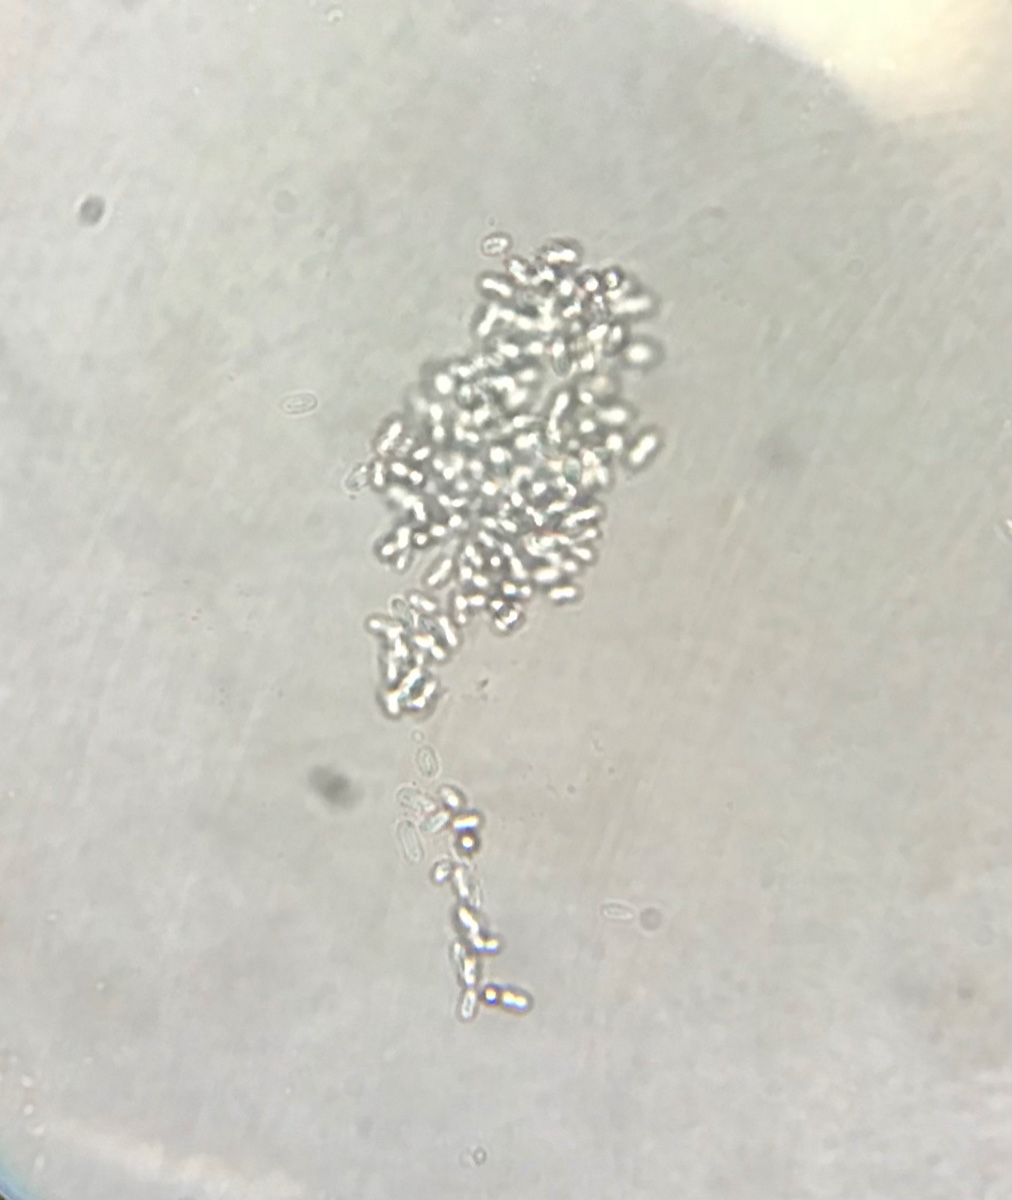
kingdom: Fungi
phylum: Ascomycota
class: Dothideomycetes
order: Pleosporales
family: Didymellaceae
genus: Phoma
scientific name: Phoma
